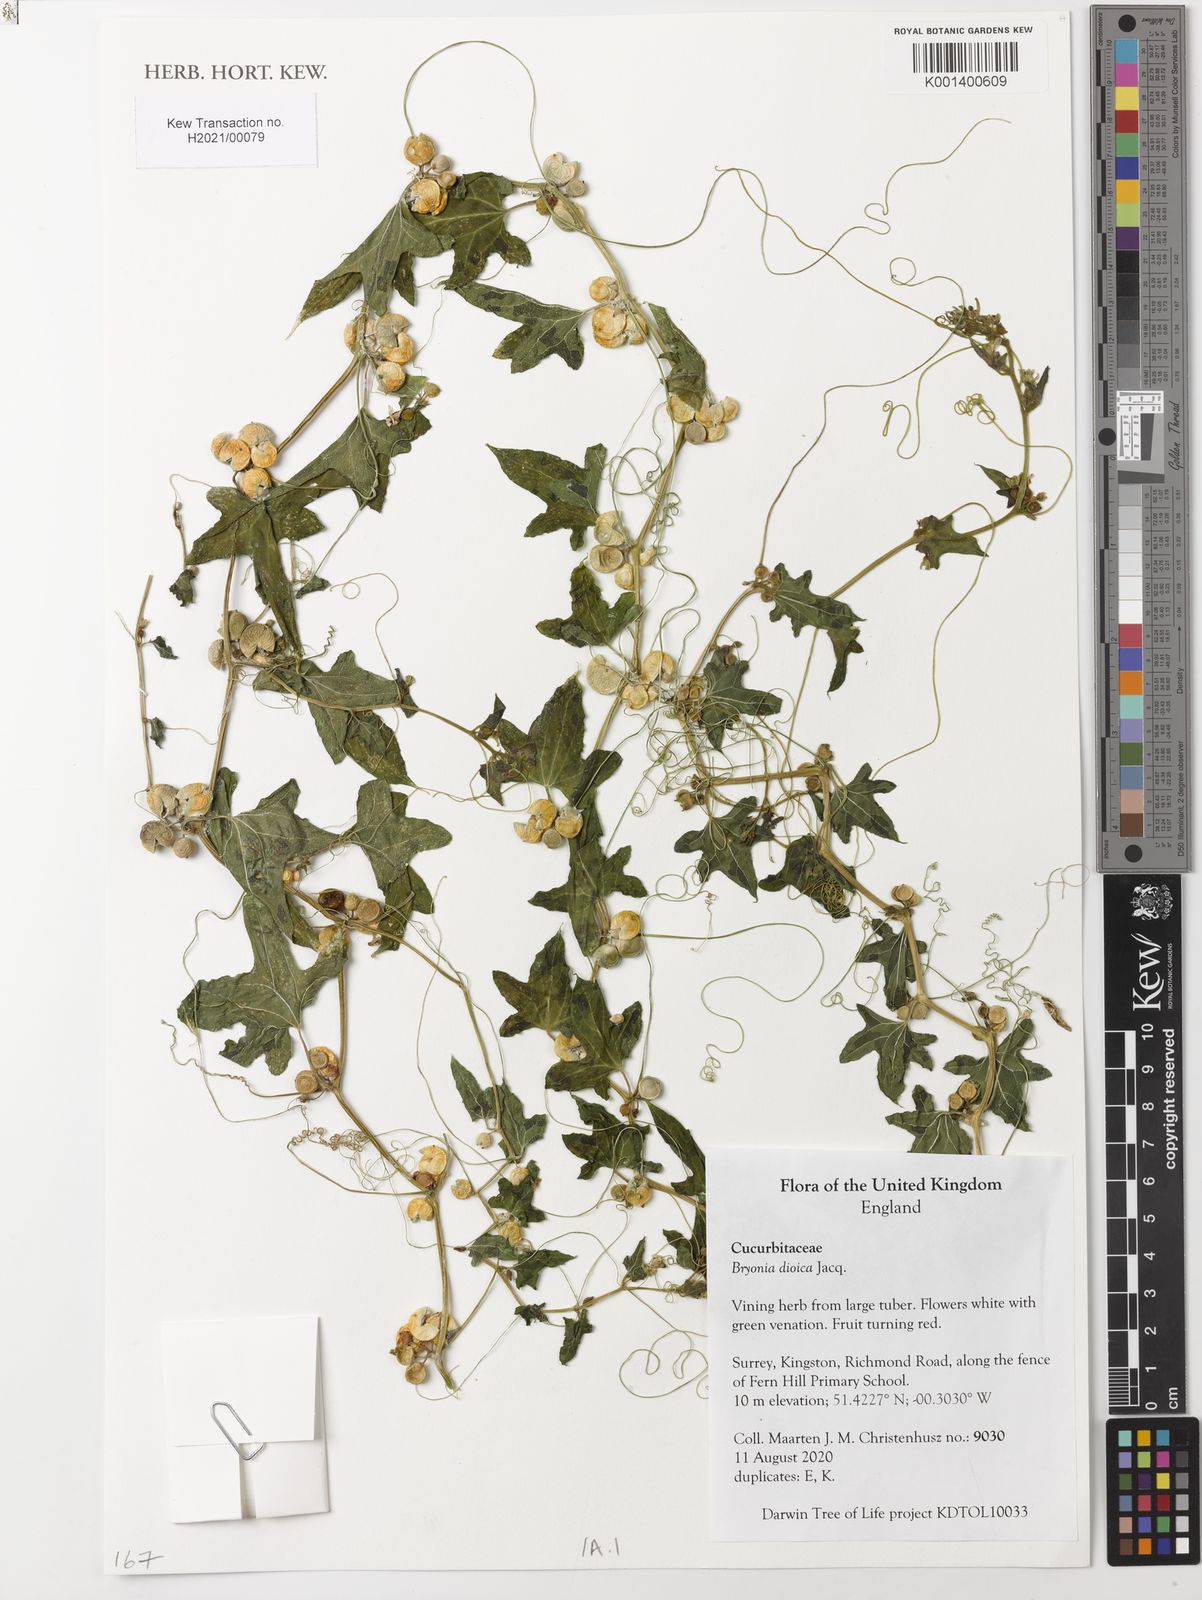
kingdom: Plantae
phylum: Tracheophyta
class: Magnoliopsida
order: Cucurbitales
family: Cucurbitaceae
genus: Bryonia
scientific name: Bryonia dioica
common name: White bryony
